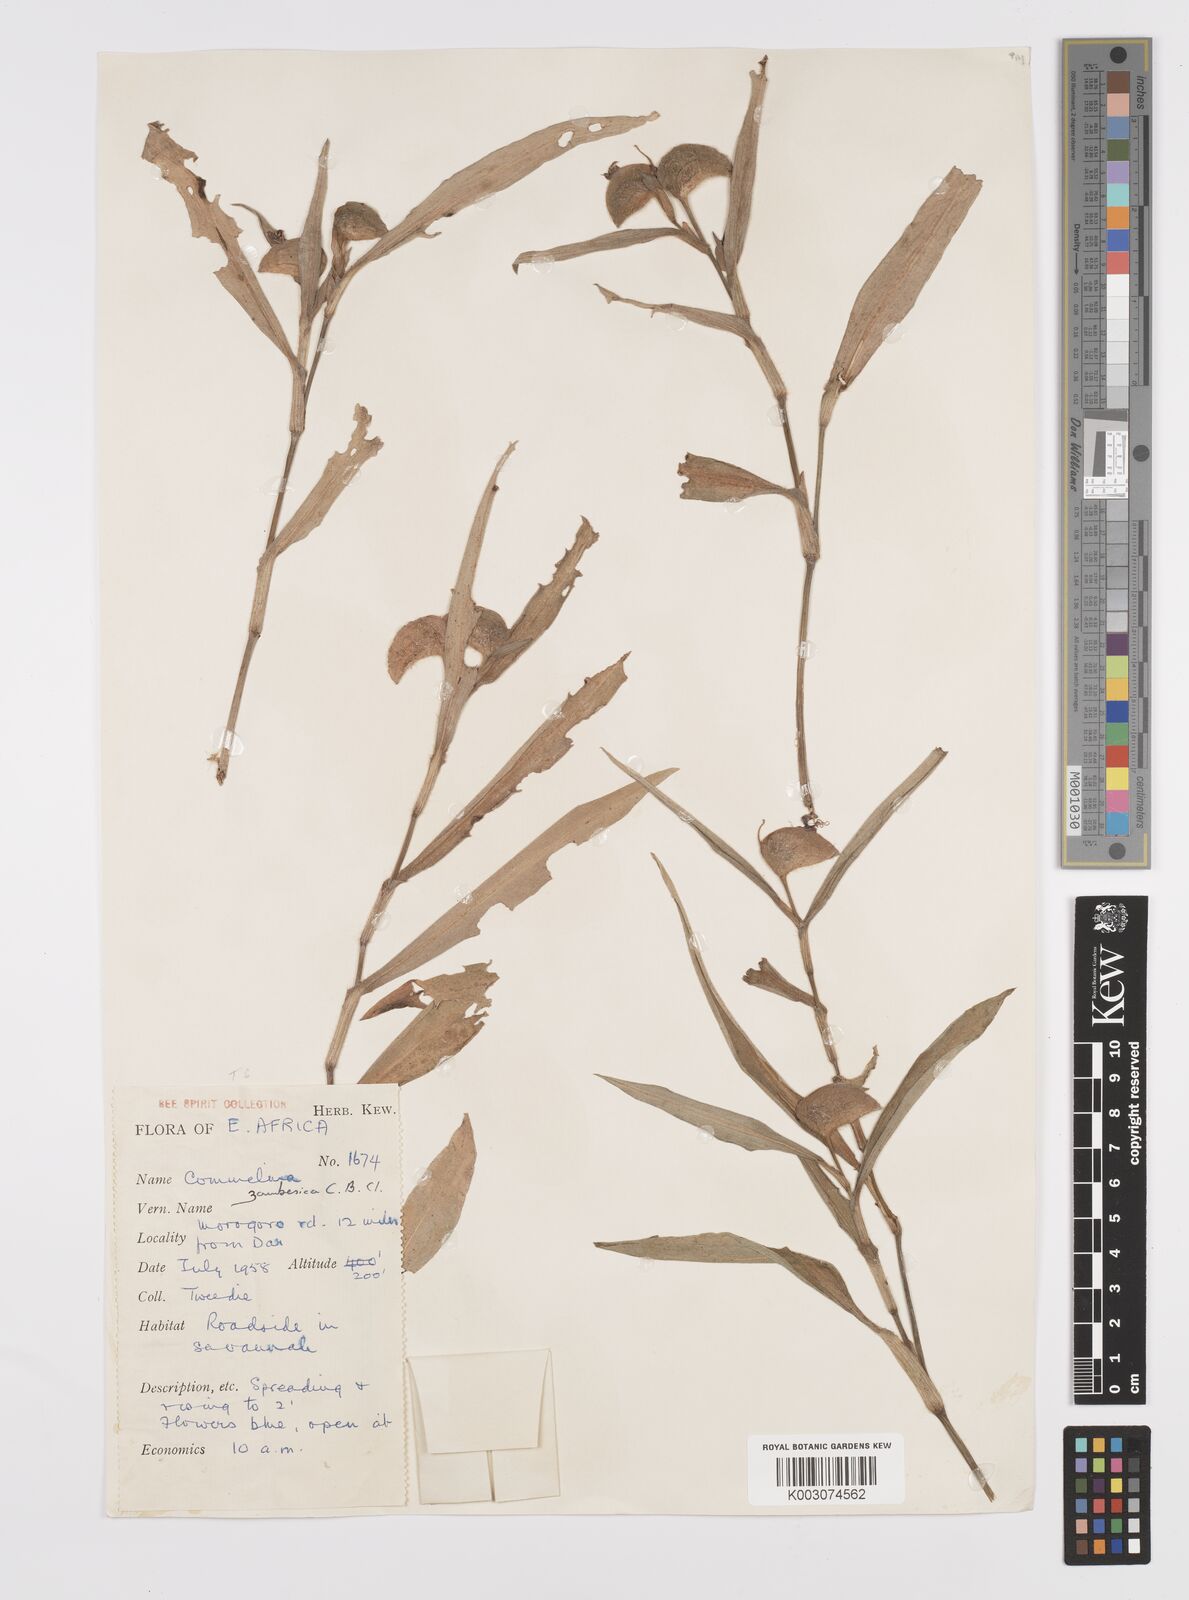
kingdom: Plantae
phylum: Tracheophyta
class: Liliopsida
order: Commelinales
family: Commelinaceae
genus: Commelina
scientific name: Commelina zambesica
